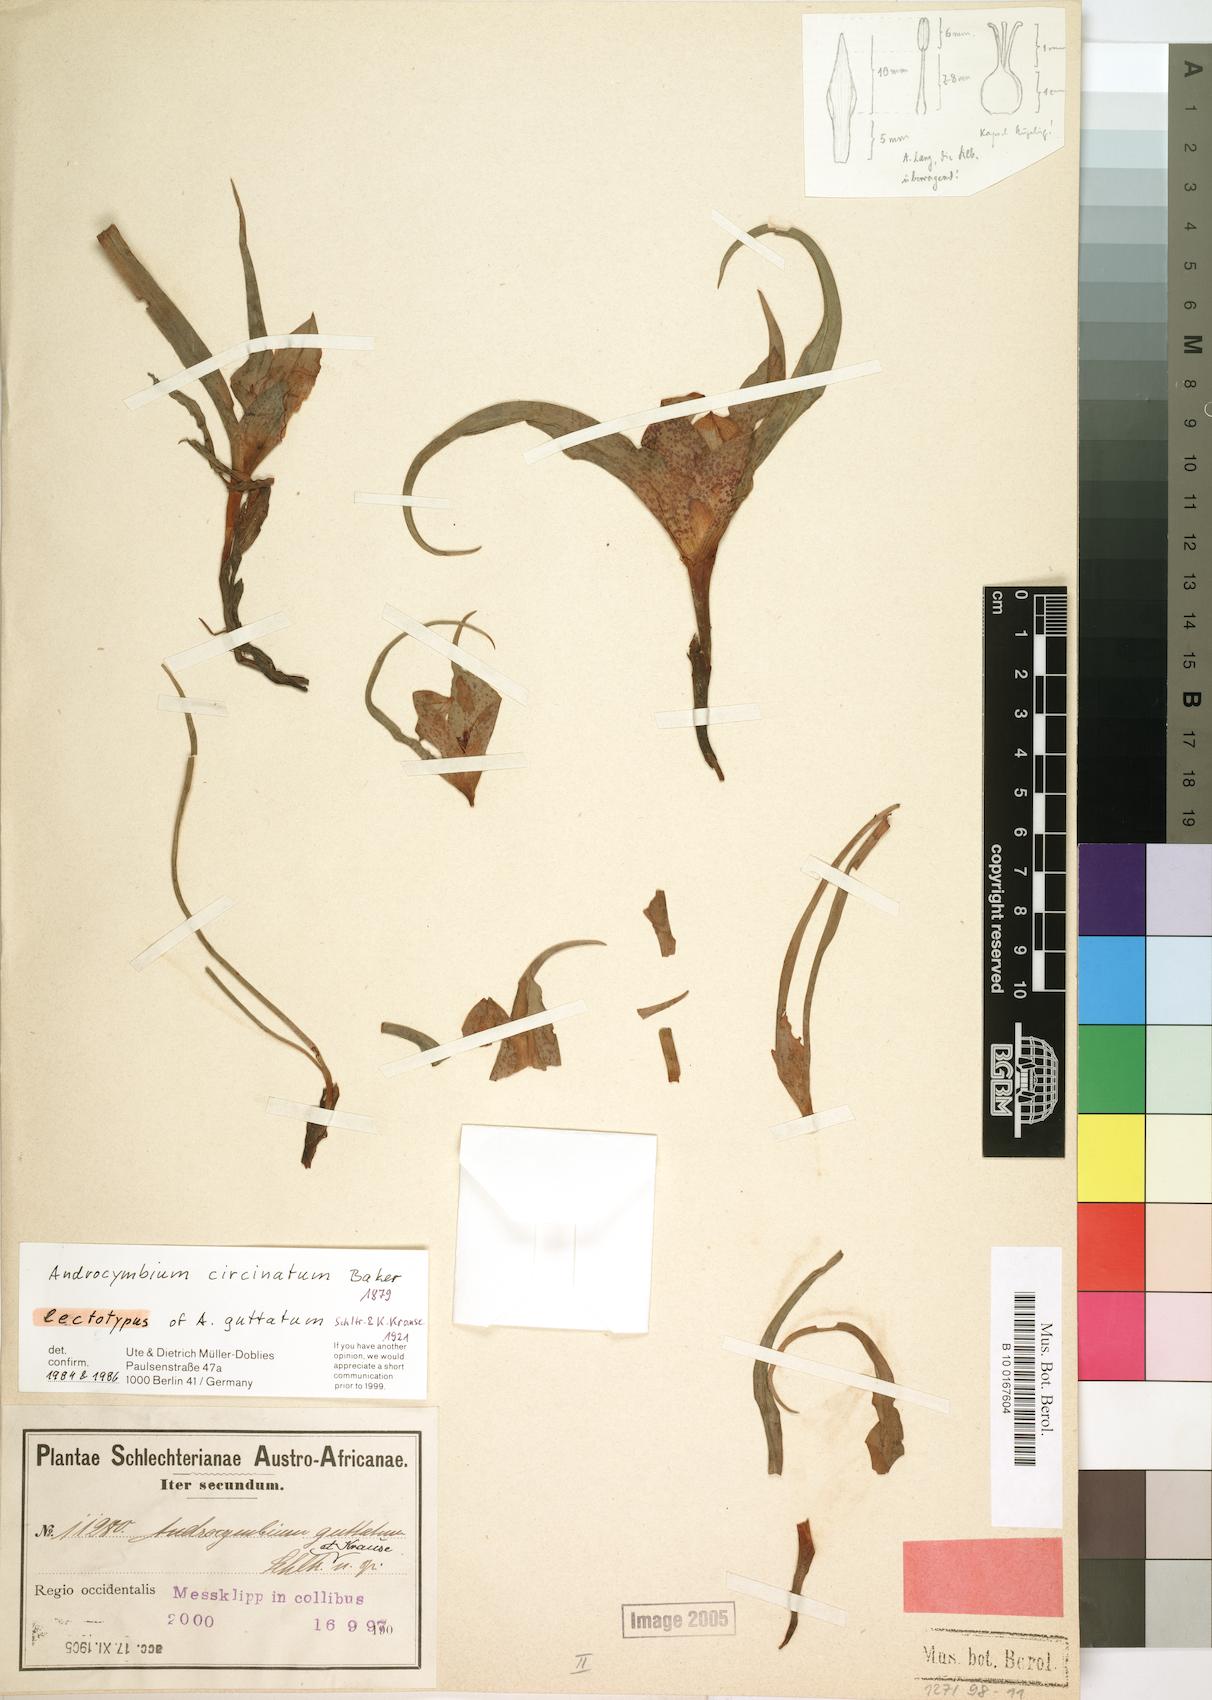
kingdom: Plantae
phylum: Tracheophyta
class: Liliopsida
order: Liliales
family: Colchicaceae
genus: Colchicum
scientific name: Colchicum circinatum
